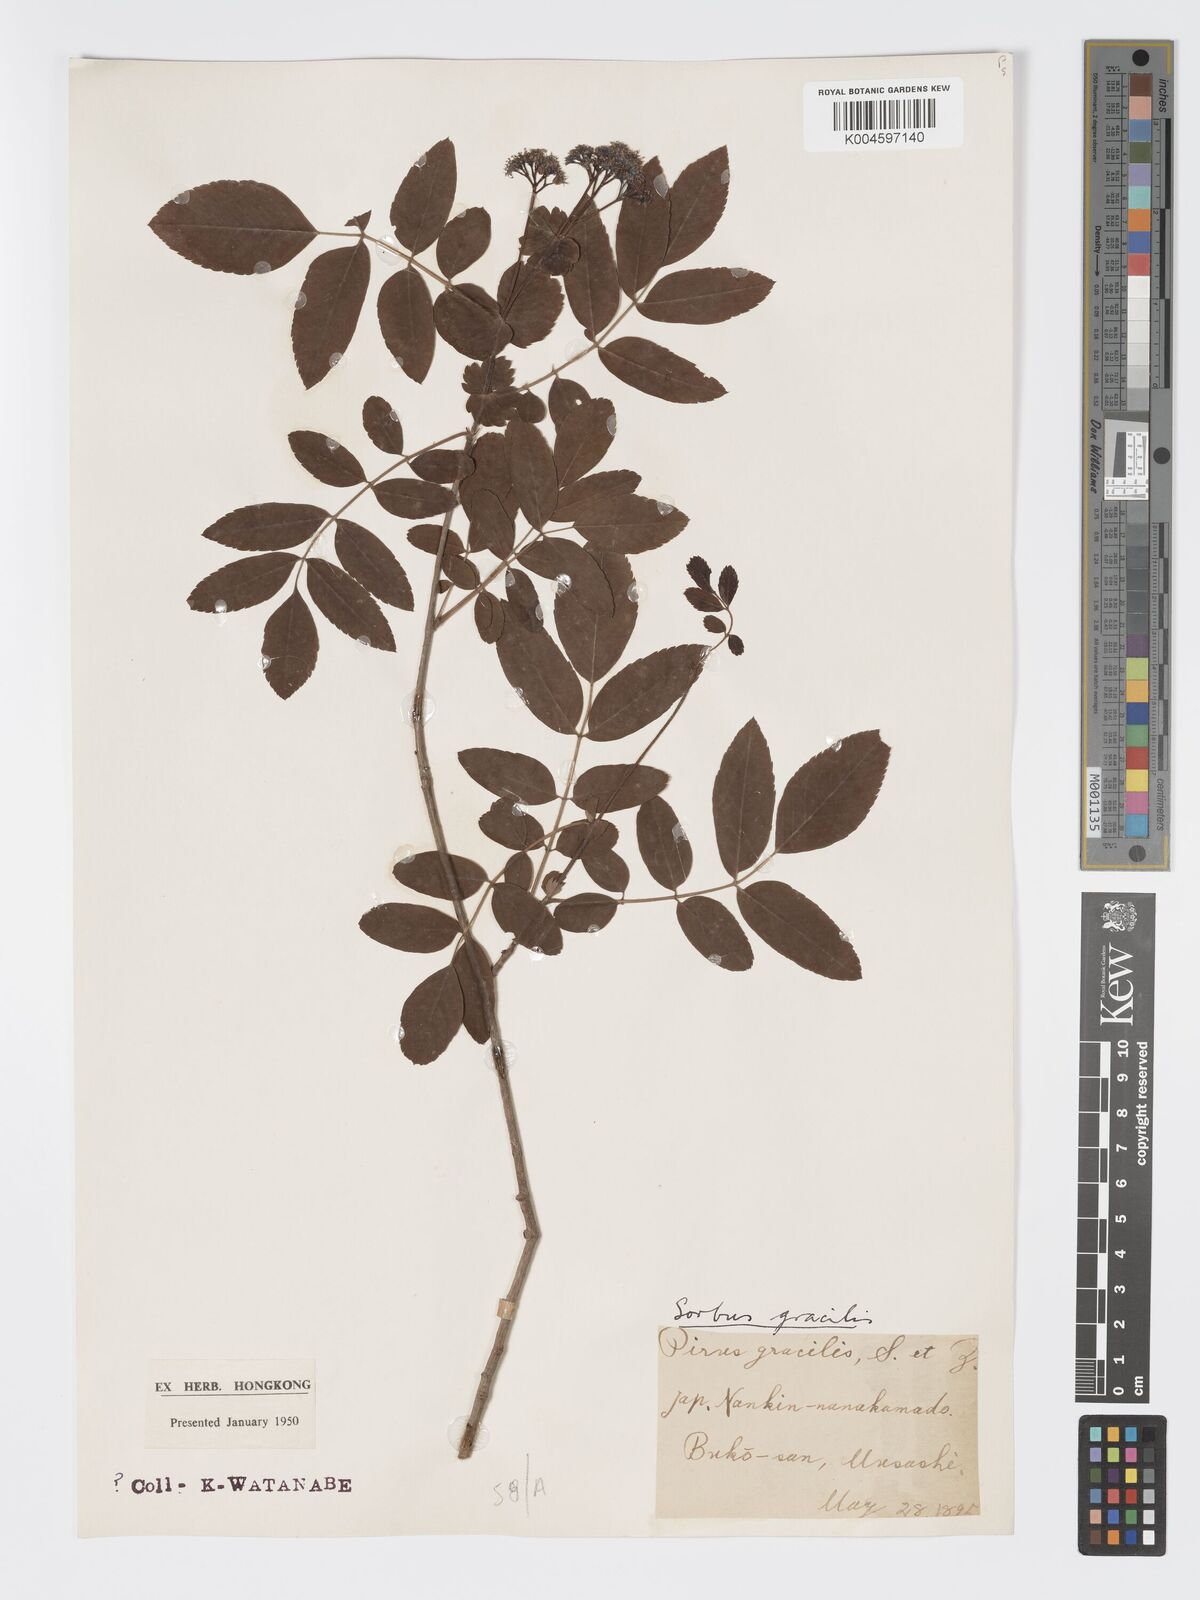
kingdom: Plantae
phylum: Tracheophyta
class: Magnoliopsida
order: Rosales
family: Rosaceae
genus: Sorbus
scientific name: Sorbus gracilis
